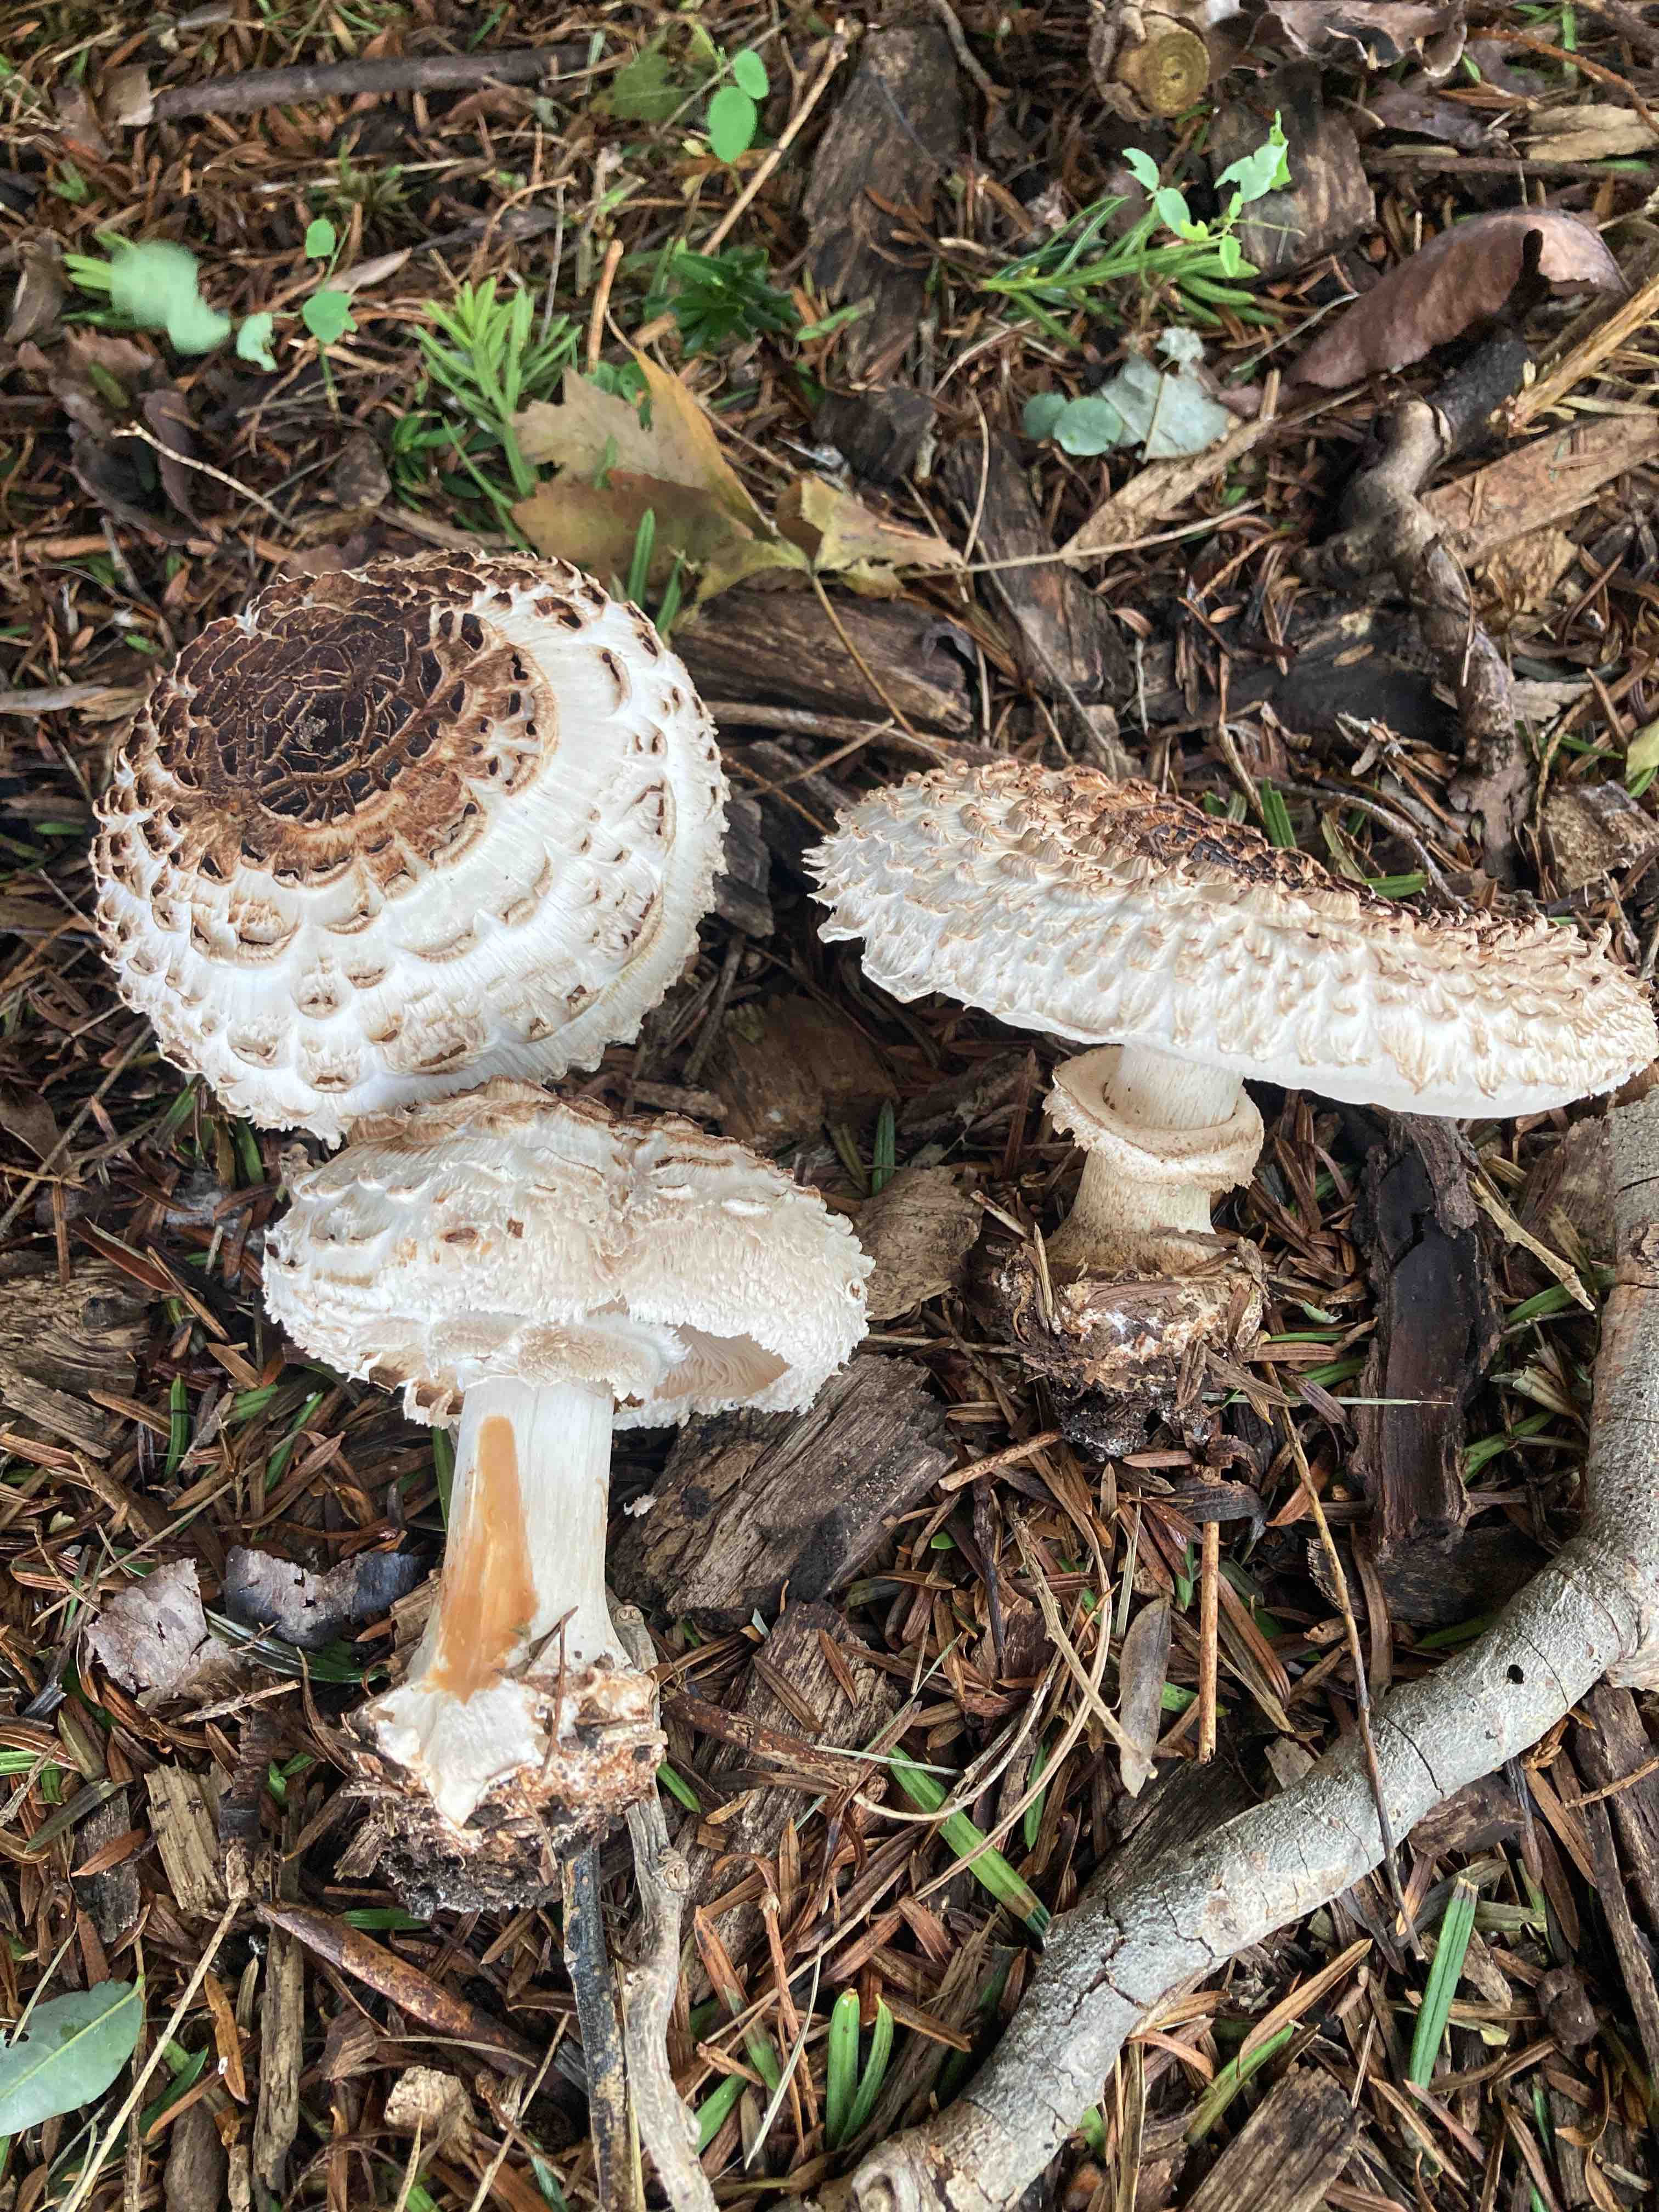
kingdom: Fungi
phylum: Basidiomycota
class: Agaricomycetes
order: Agaricales
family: Agaricaceae
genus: Chlorophyllum
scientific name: Chlorophyllum
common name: rabarberhat
